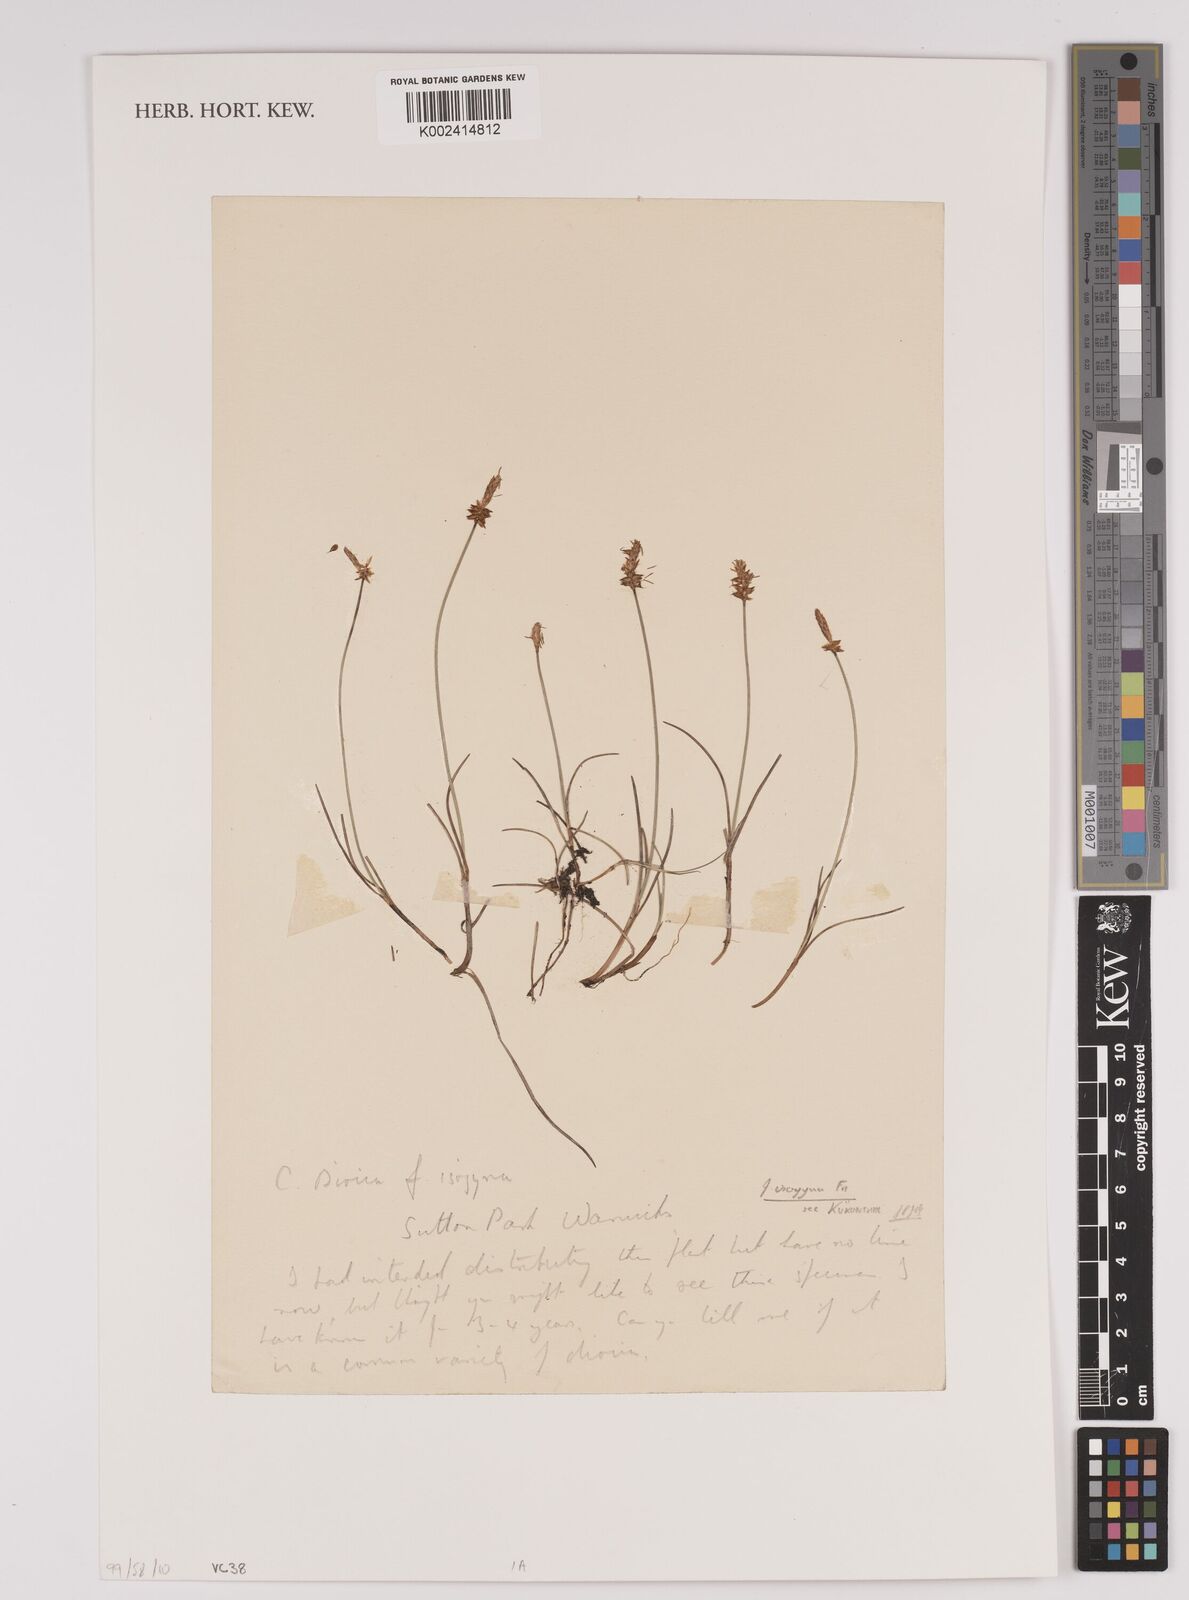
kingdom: Plantae
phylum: Tracheophyta
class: Liliopsida
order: Poales
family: Cyperaceae
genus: Carex
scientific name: Carex dioica
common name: Dioecious sedge
